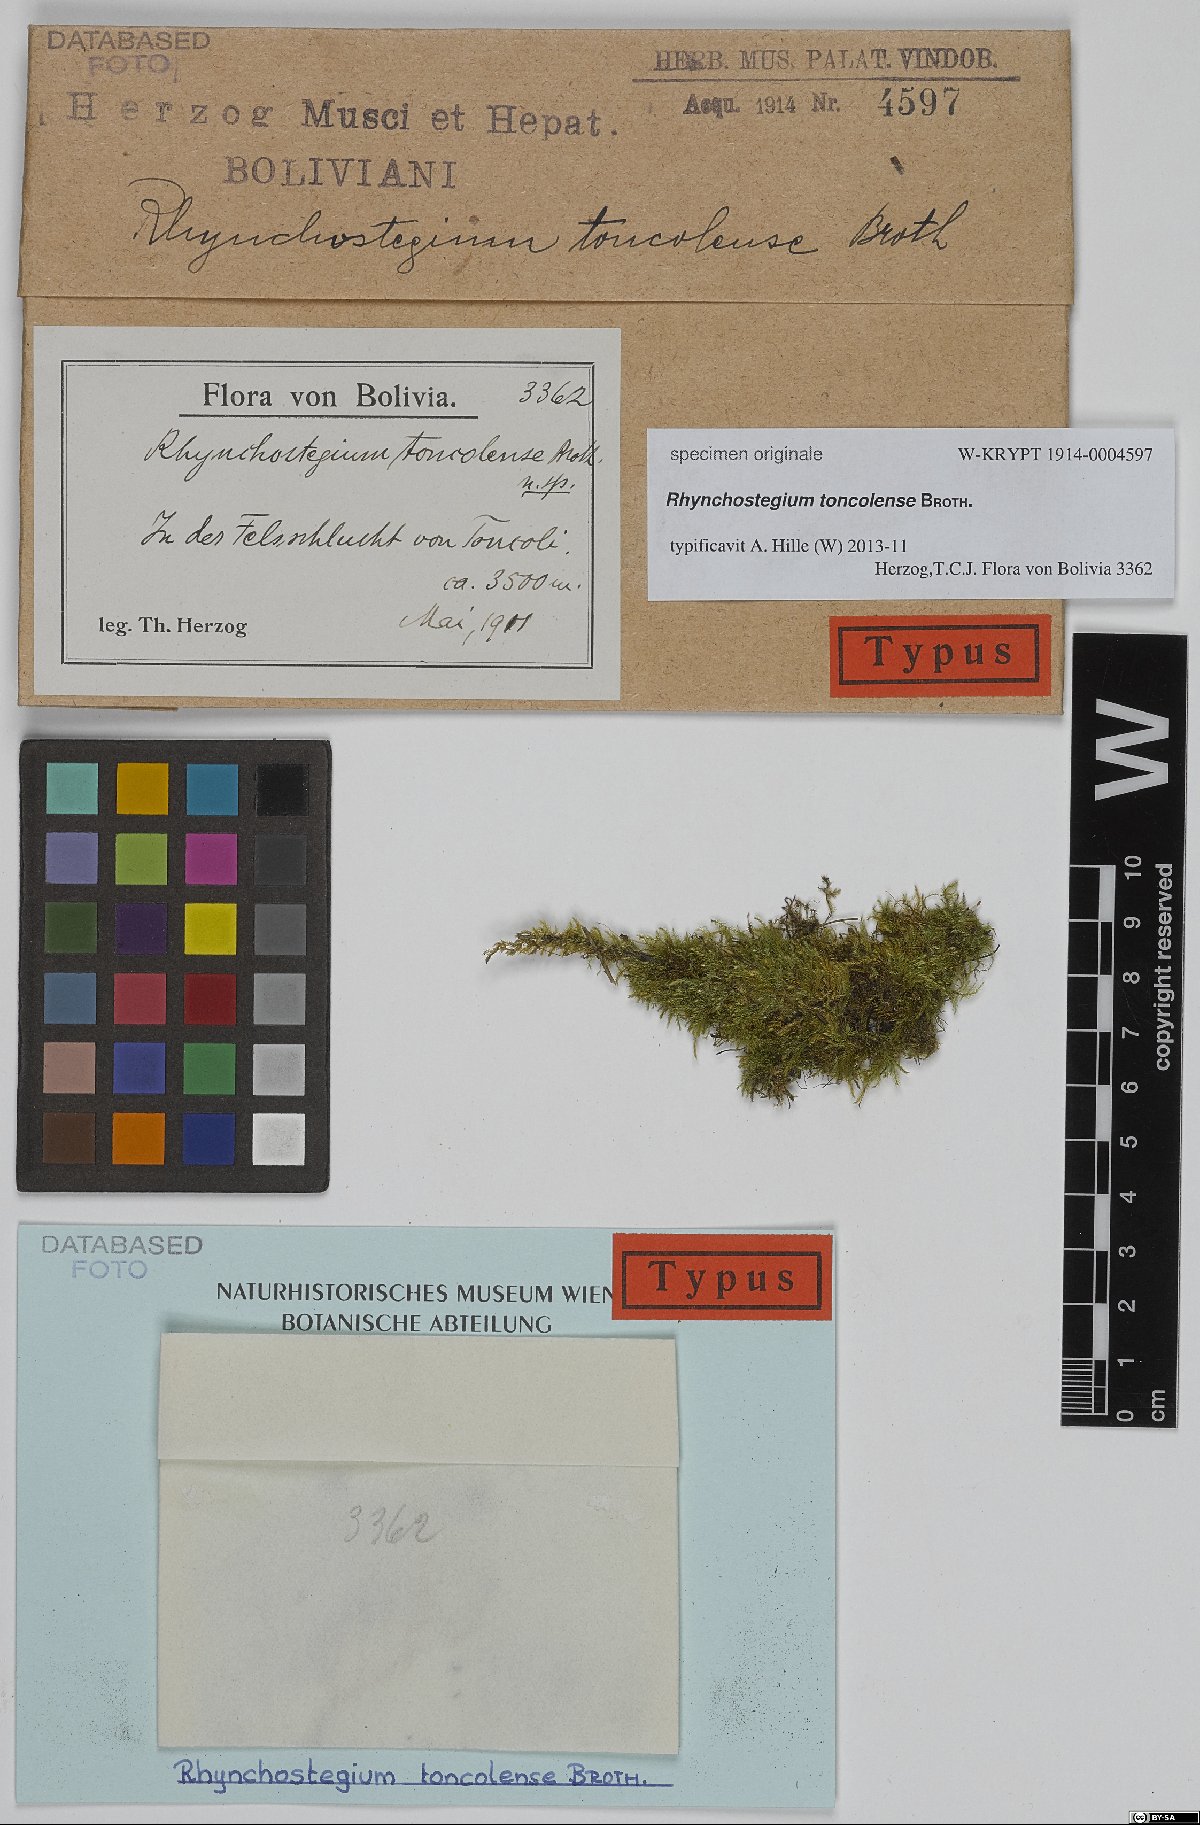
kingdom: Plantae
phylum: Bryophyta
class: Bryopsida
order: Hypnales
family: Brachytheciaceae
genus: Rhynchostegium
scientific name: Rhynchostegium
